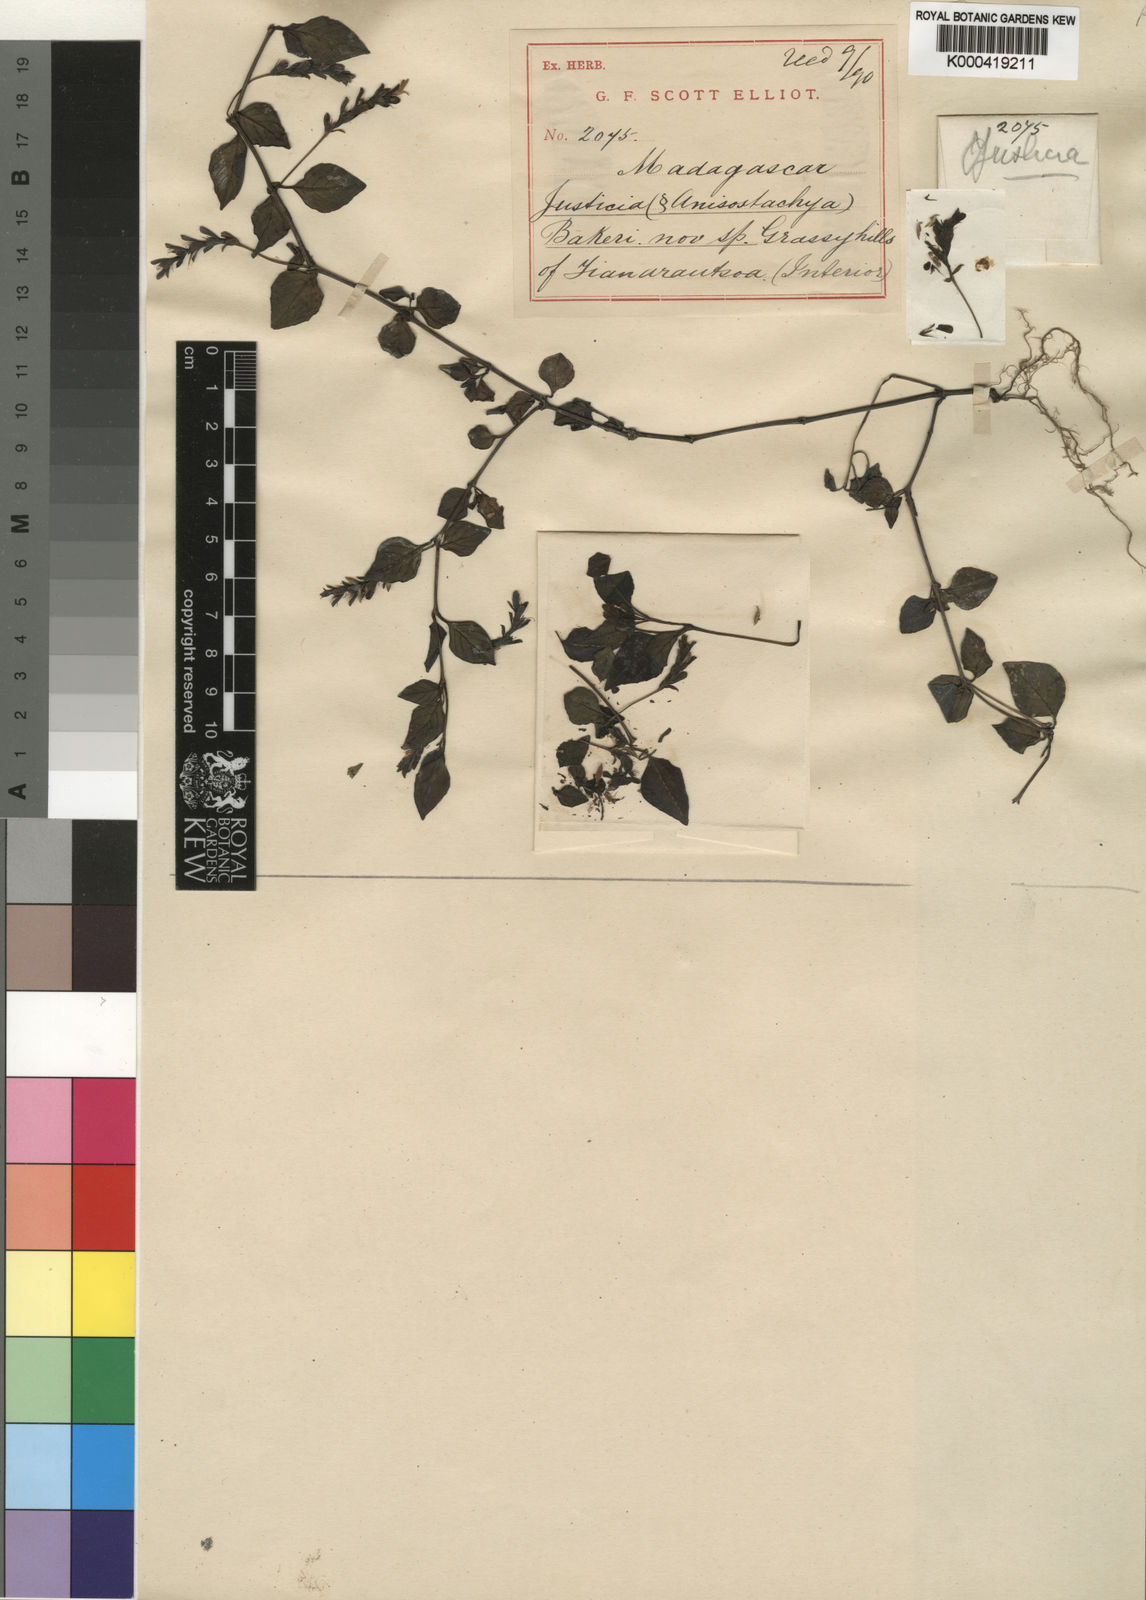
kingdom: Plantae
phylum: Tracheophyta
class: Magnoliopsida
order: Lamiales
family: Acanthaceae
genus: Justicia
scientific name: Justicia bakeri
